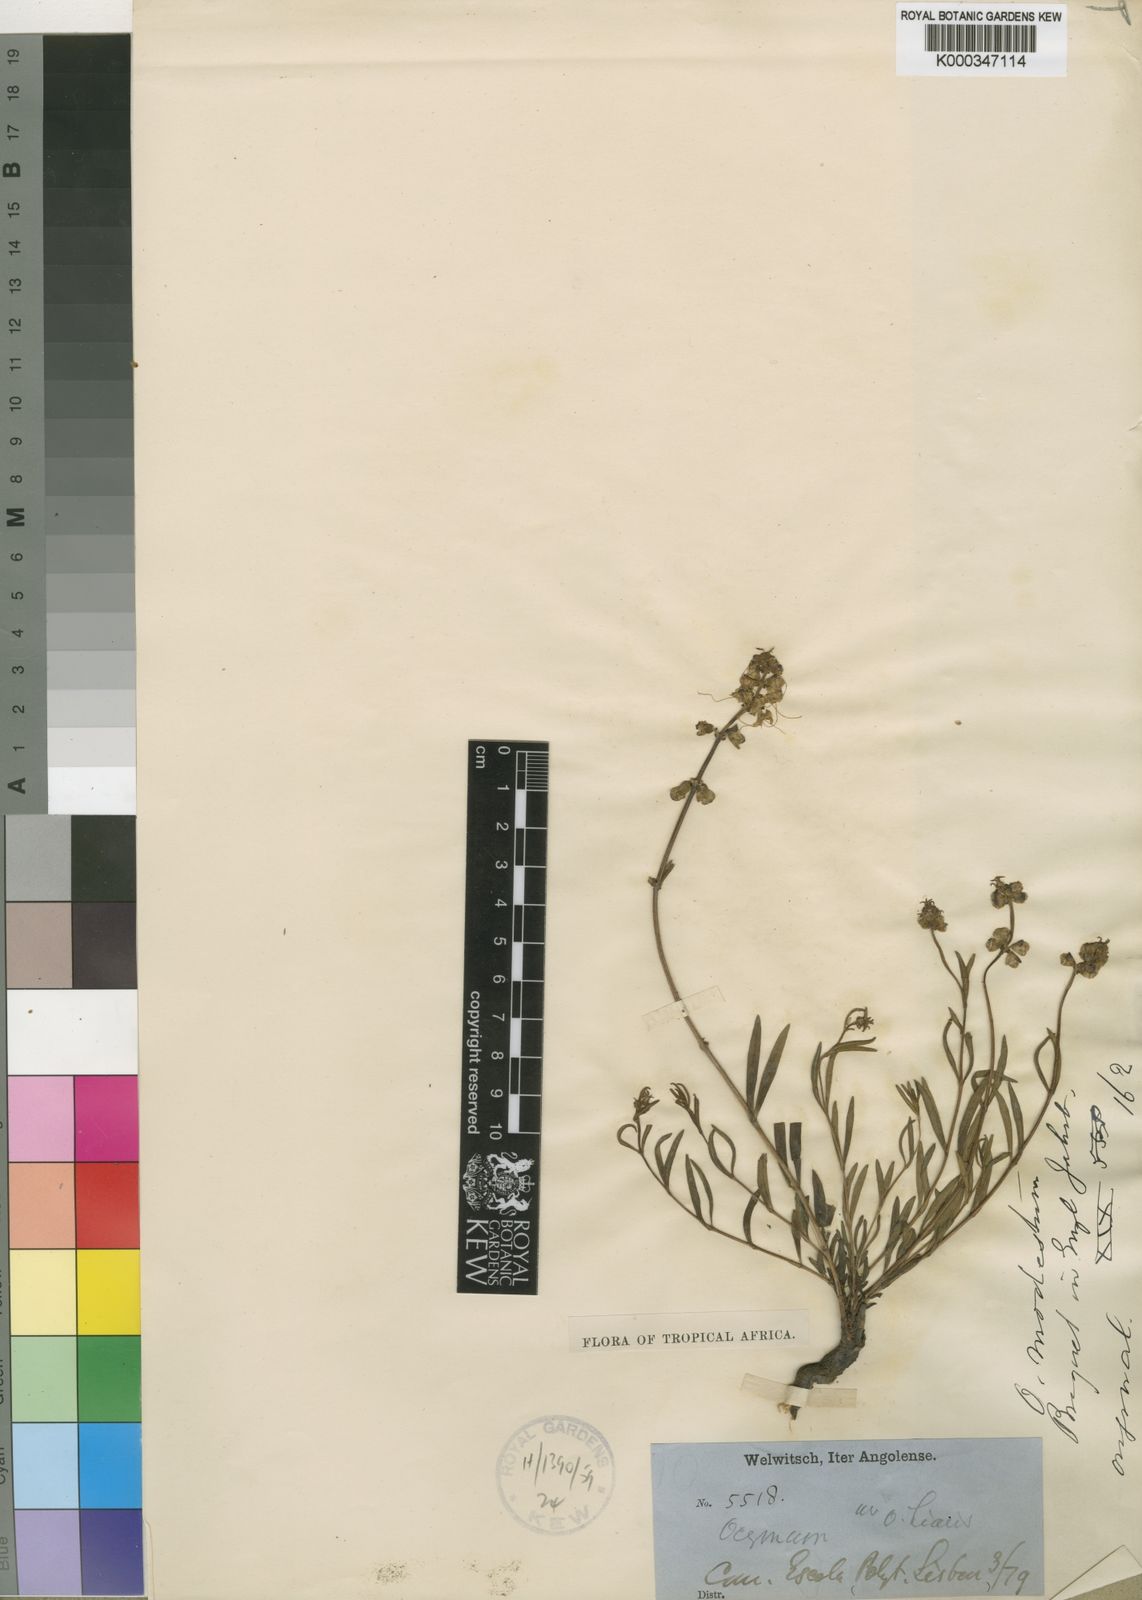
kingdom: Plantae
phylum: Tracheophyta
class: Magnoliopsida
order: Lamiales
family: Lamiaceae
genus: Ocimum
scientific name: Ocimum obovatum
